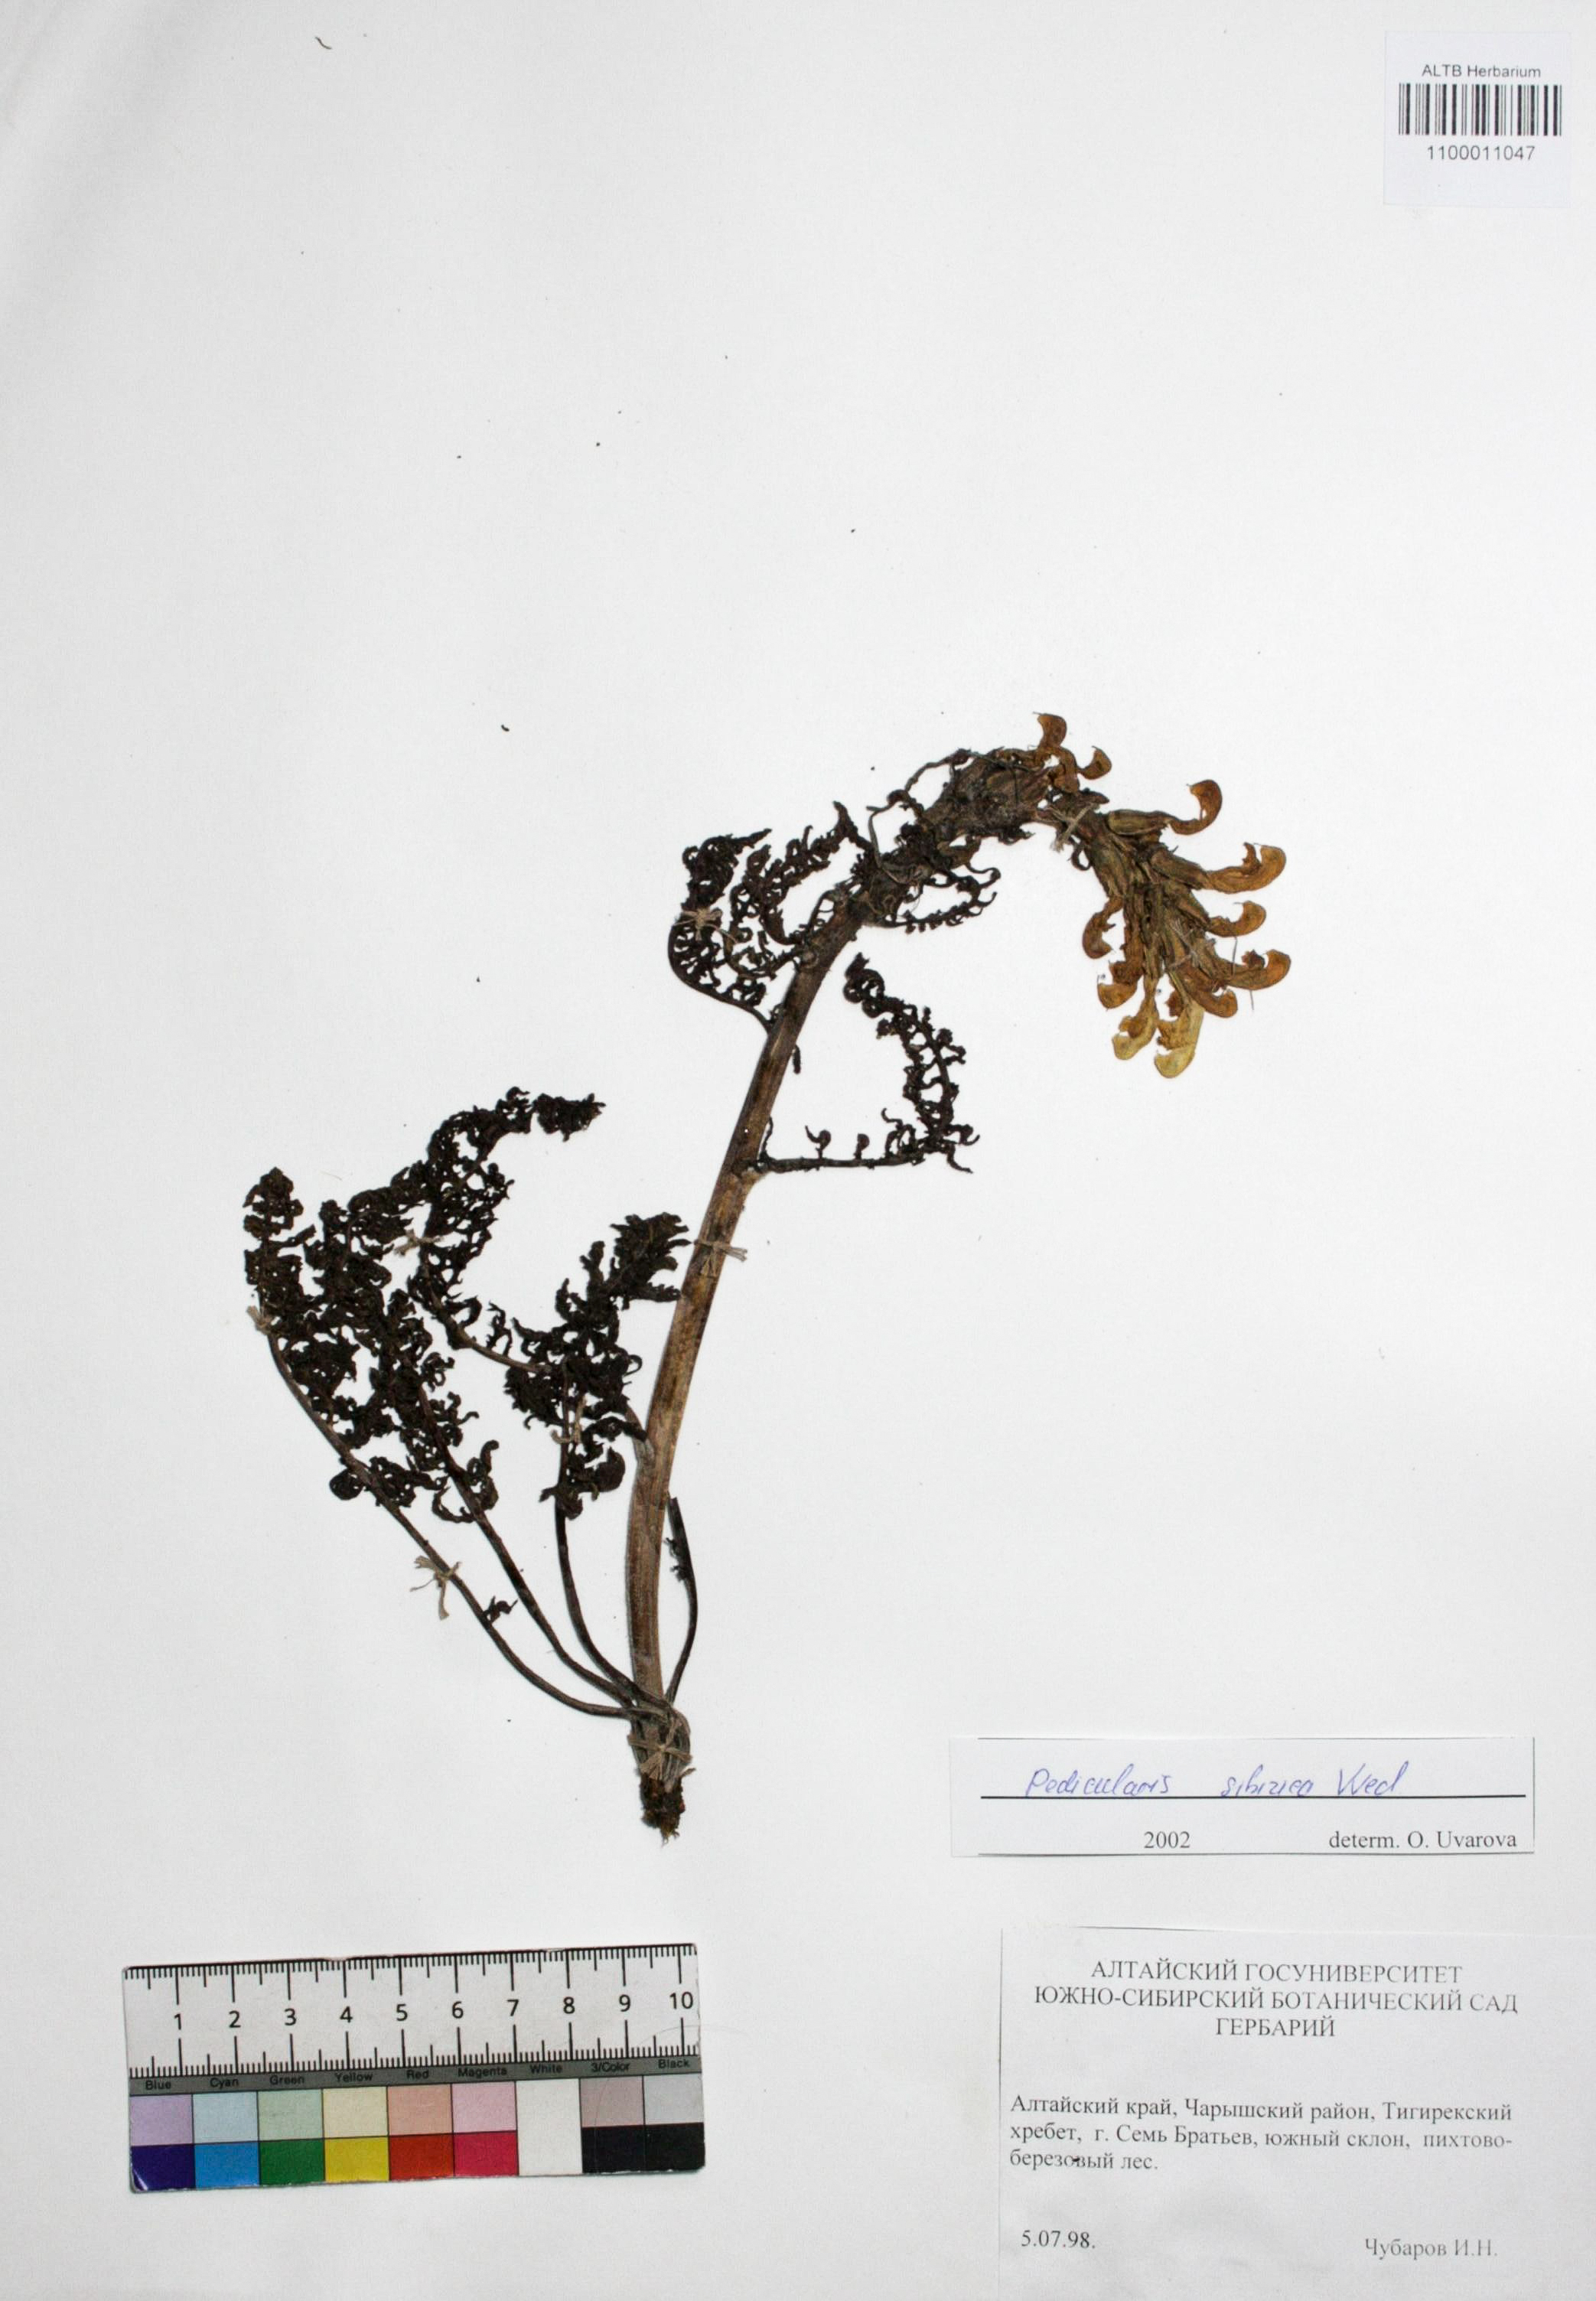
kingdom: Plantae
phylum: Tracheophyta
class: Magnoliopsida
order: Lamiales
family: Orobanchaceae
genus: Pedicularis
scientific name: Pedicularis sibirica
